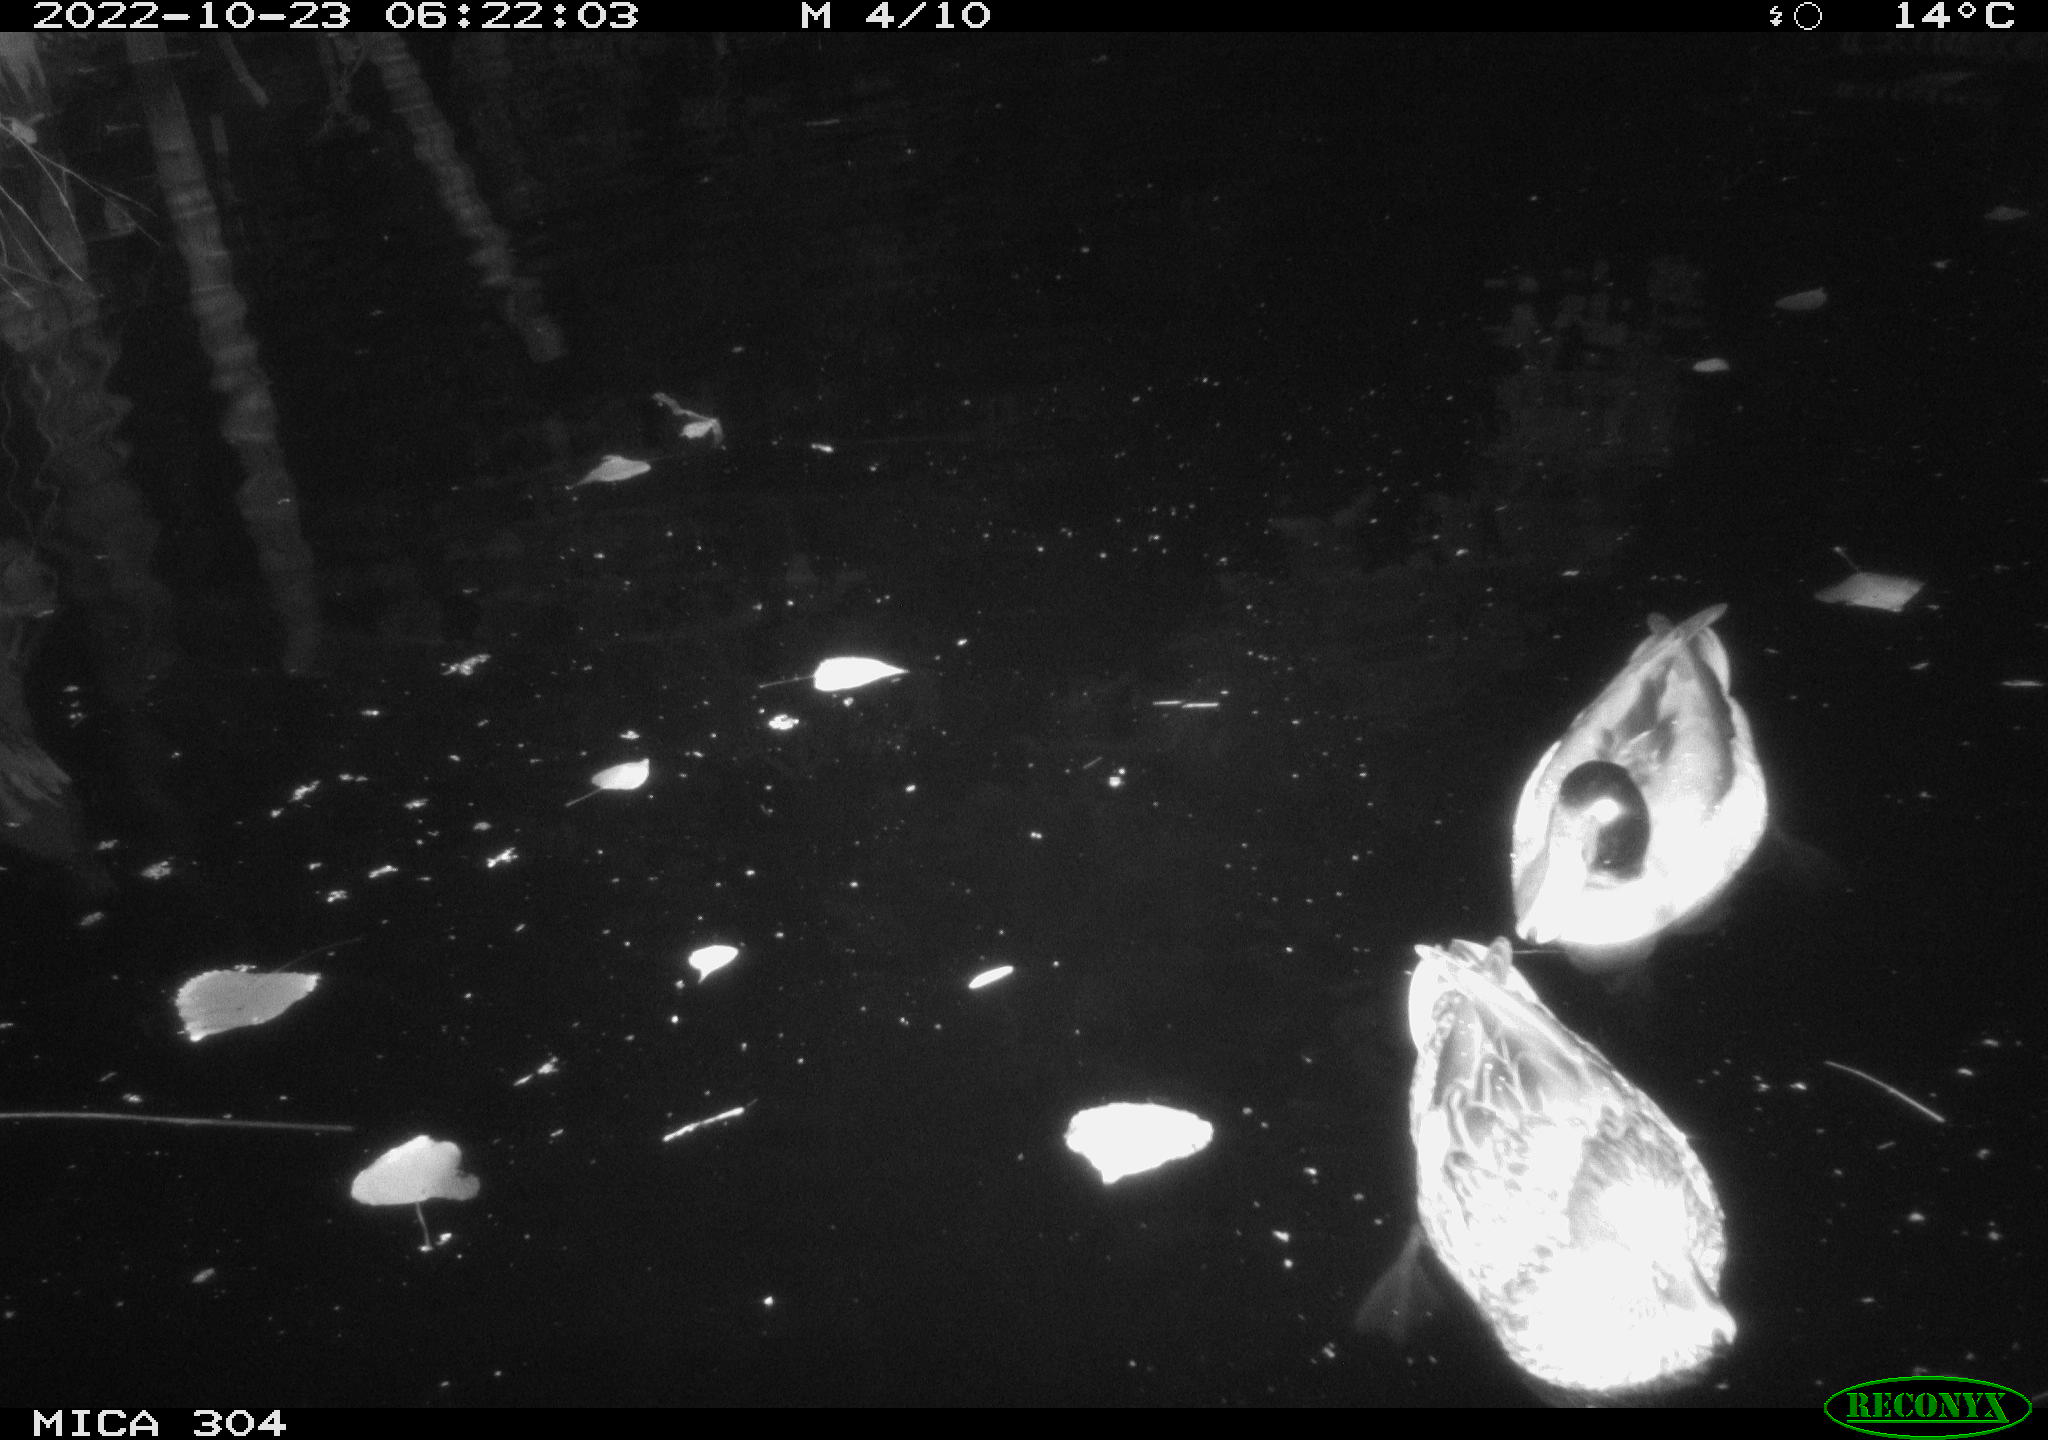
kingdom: Animalia
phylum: Chordata
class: Aves
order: Anseriformes
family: Anatidae
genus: Anas
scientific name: Anas
